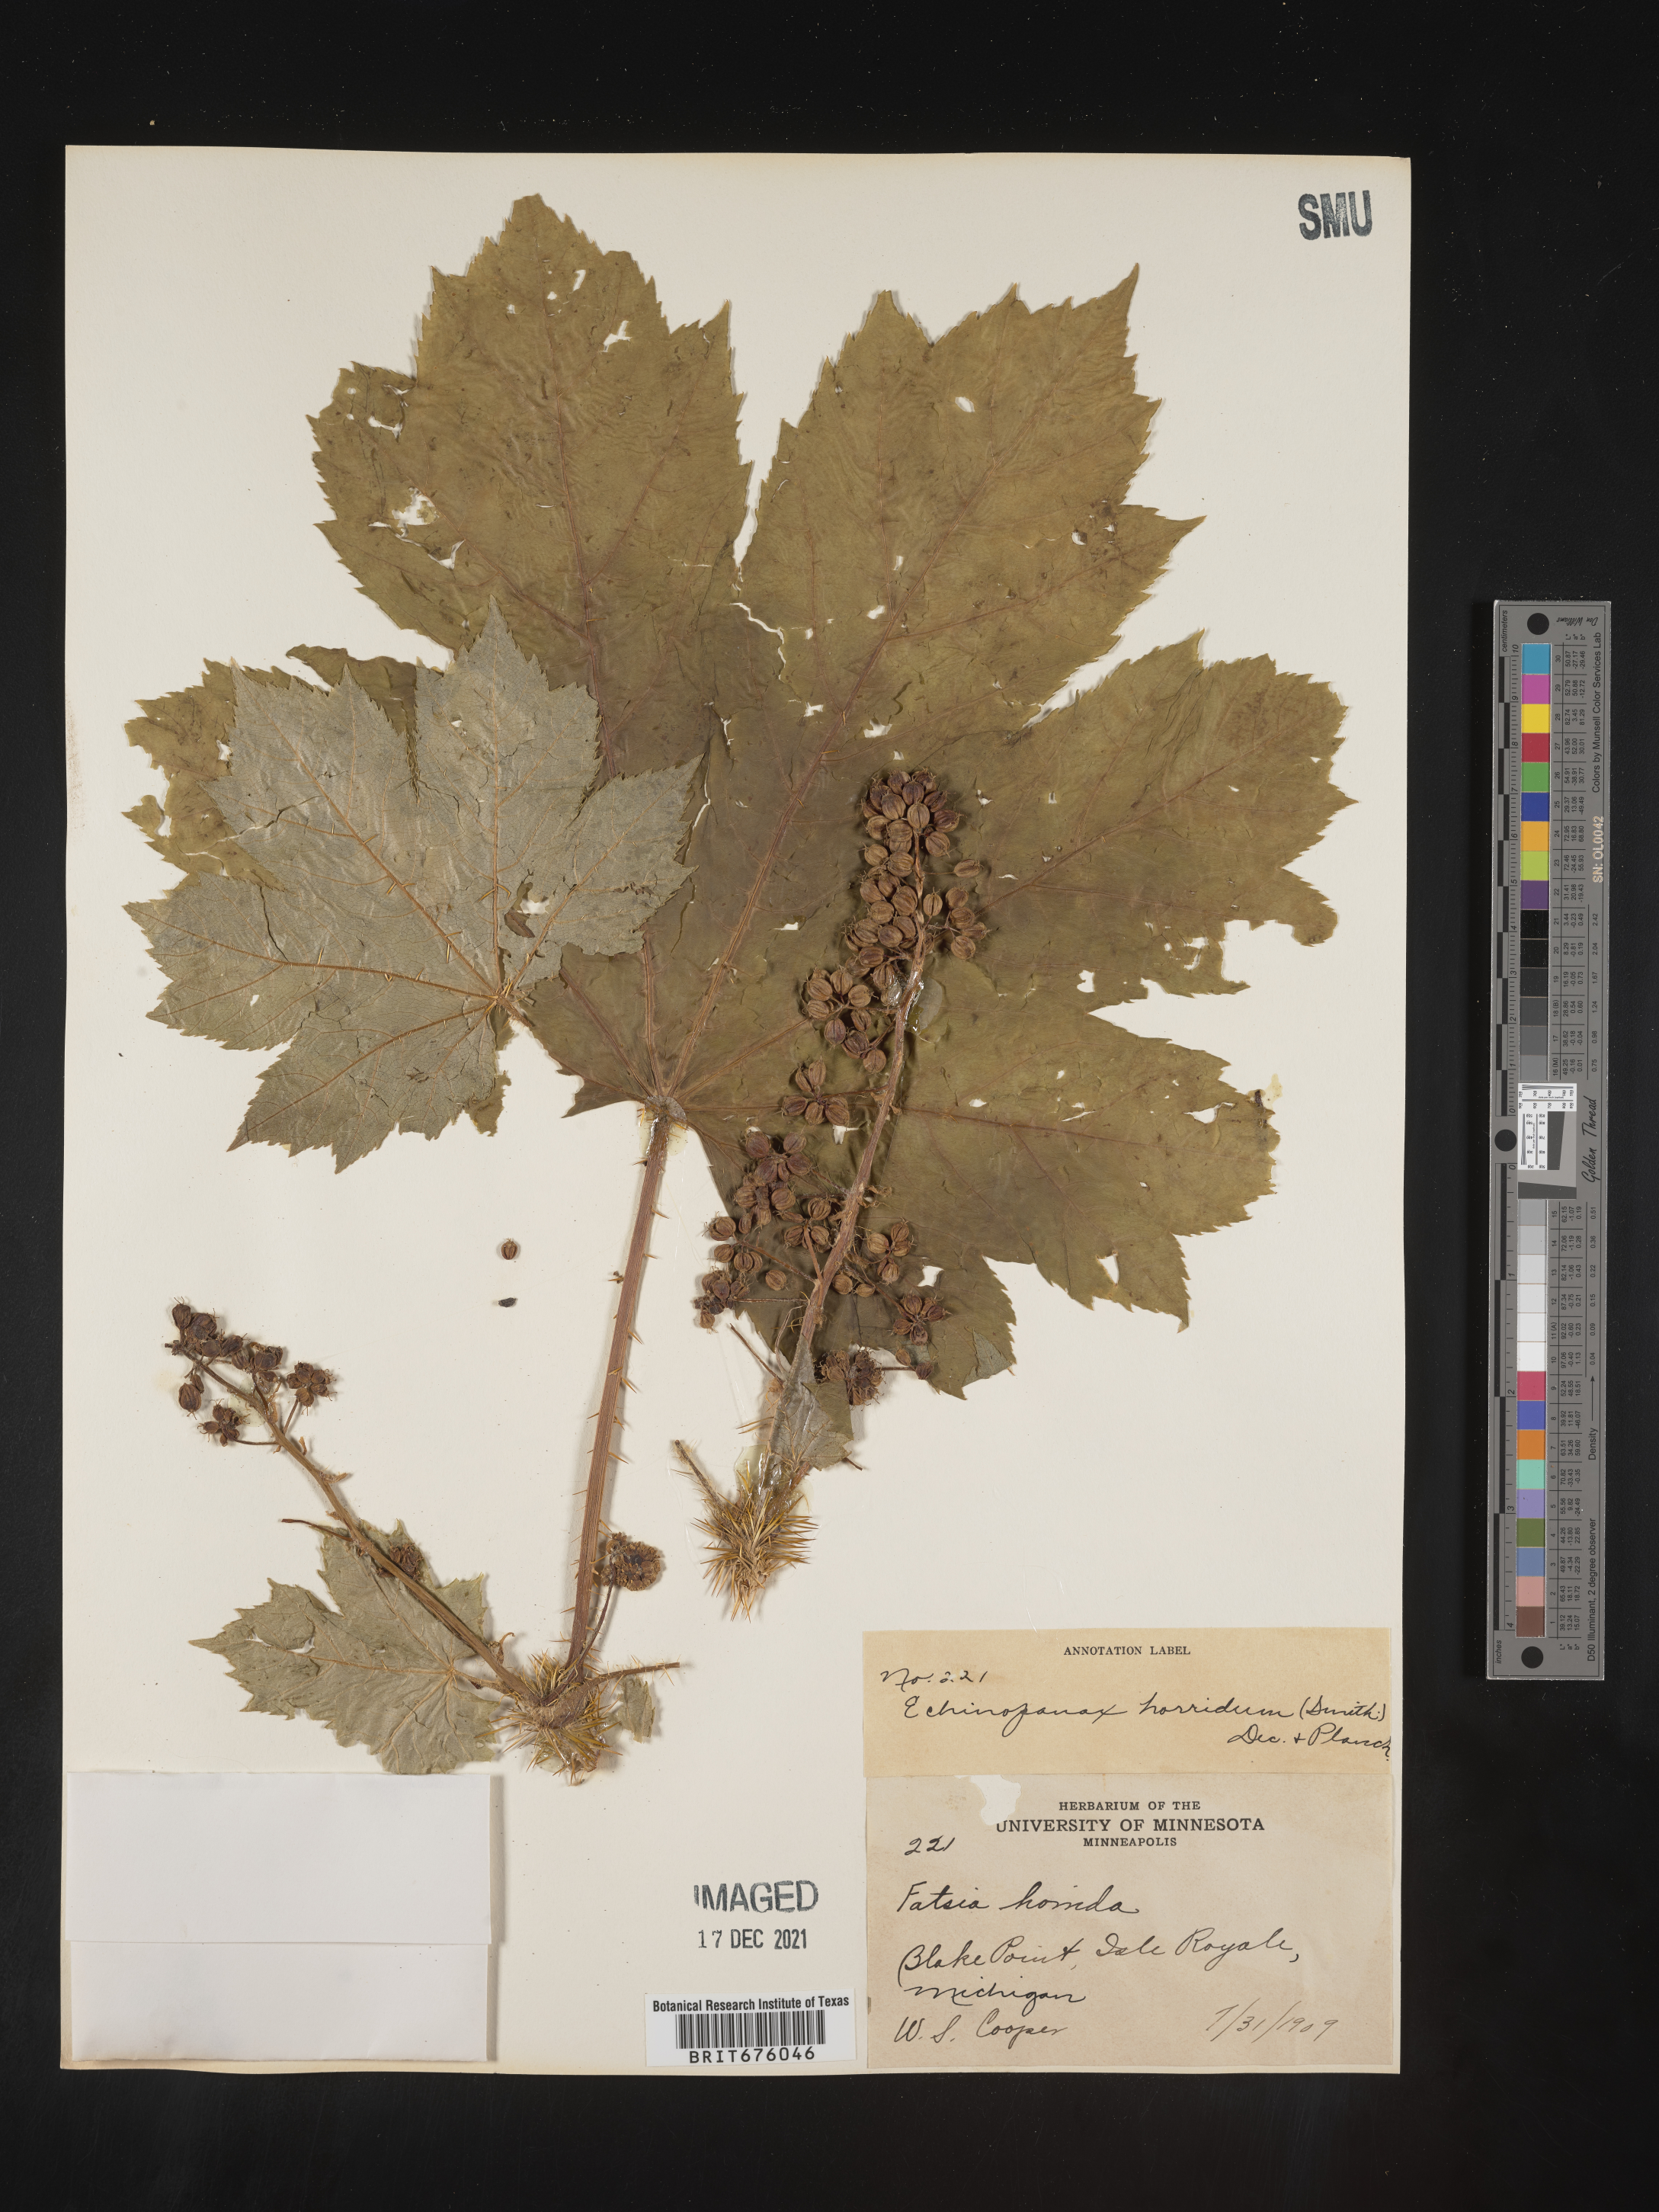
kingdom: Plantae
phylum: Tracheophyta
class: Magnoliopsida
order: Apiales
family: Araliaceae
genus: Oplopanax
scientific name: Oplopanax
